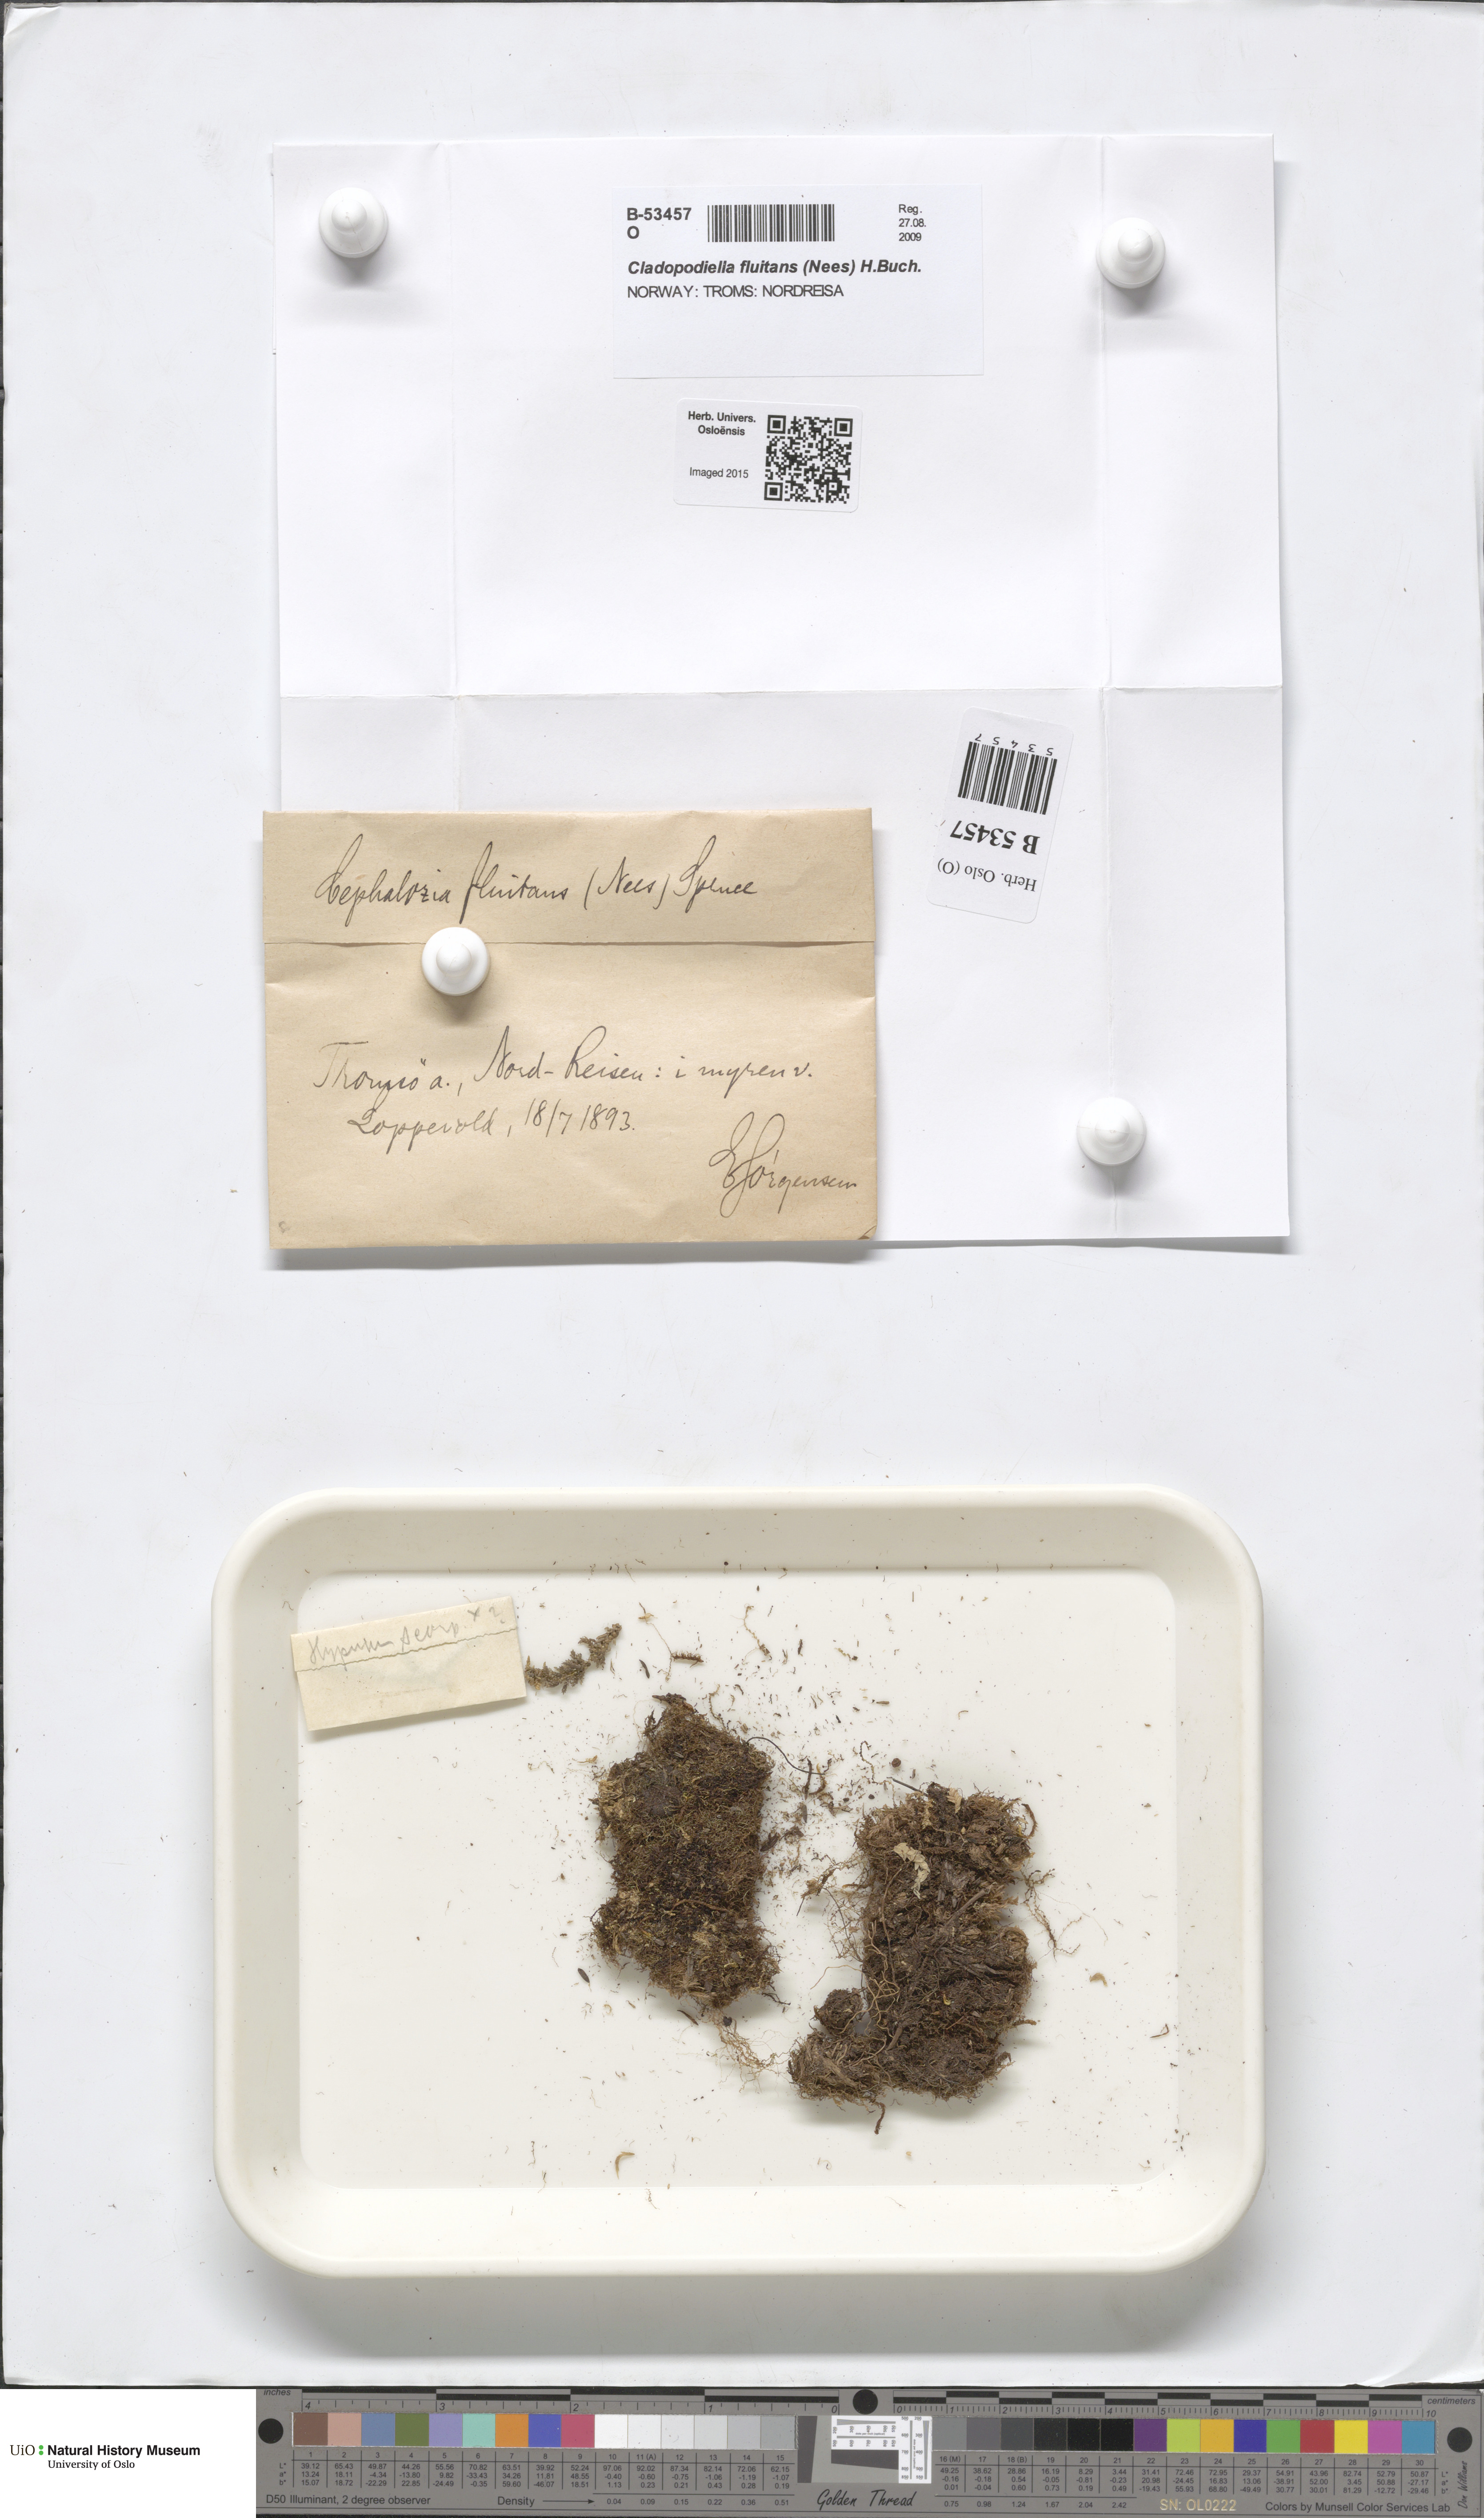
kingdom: Plantae
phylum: Marchantiophyta
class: Jungermanniopsida
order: Jungermanniales
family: Cephaloziaceae
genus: Odontoschisma
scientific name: Odontoschisma fluitans
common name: Cladopodiella moss
